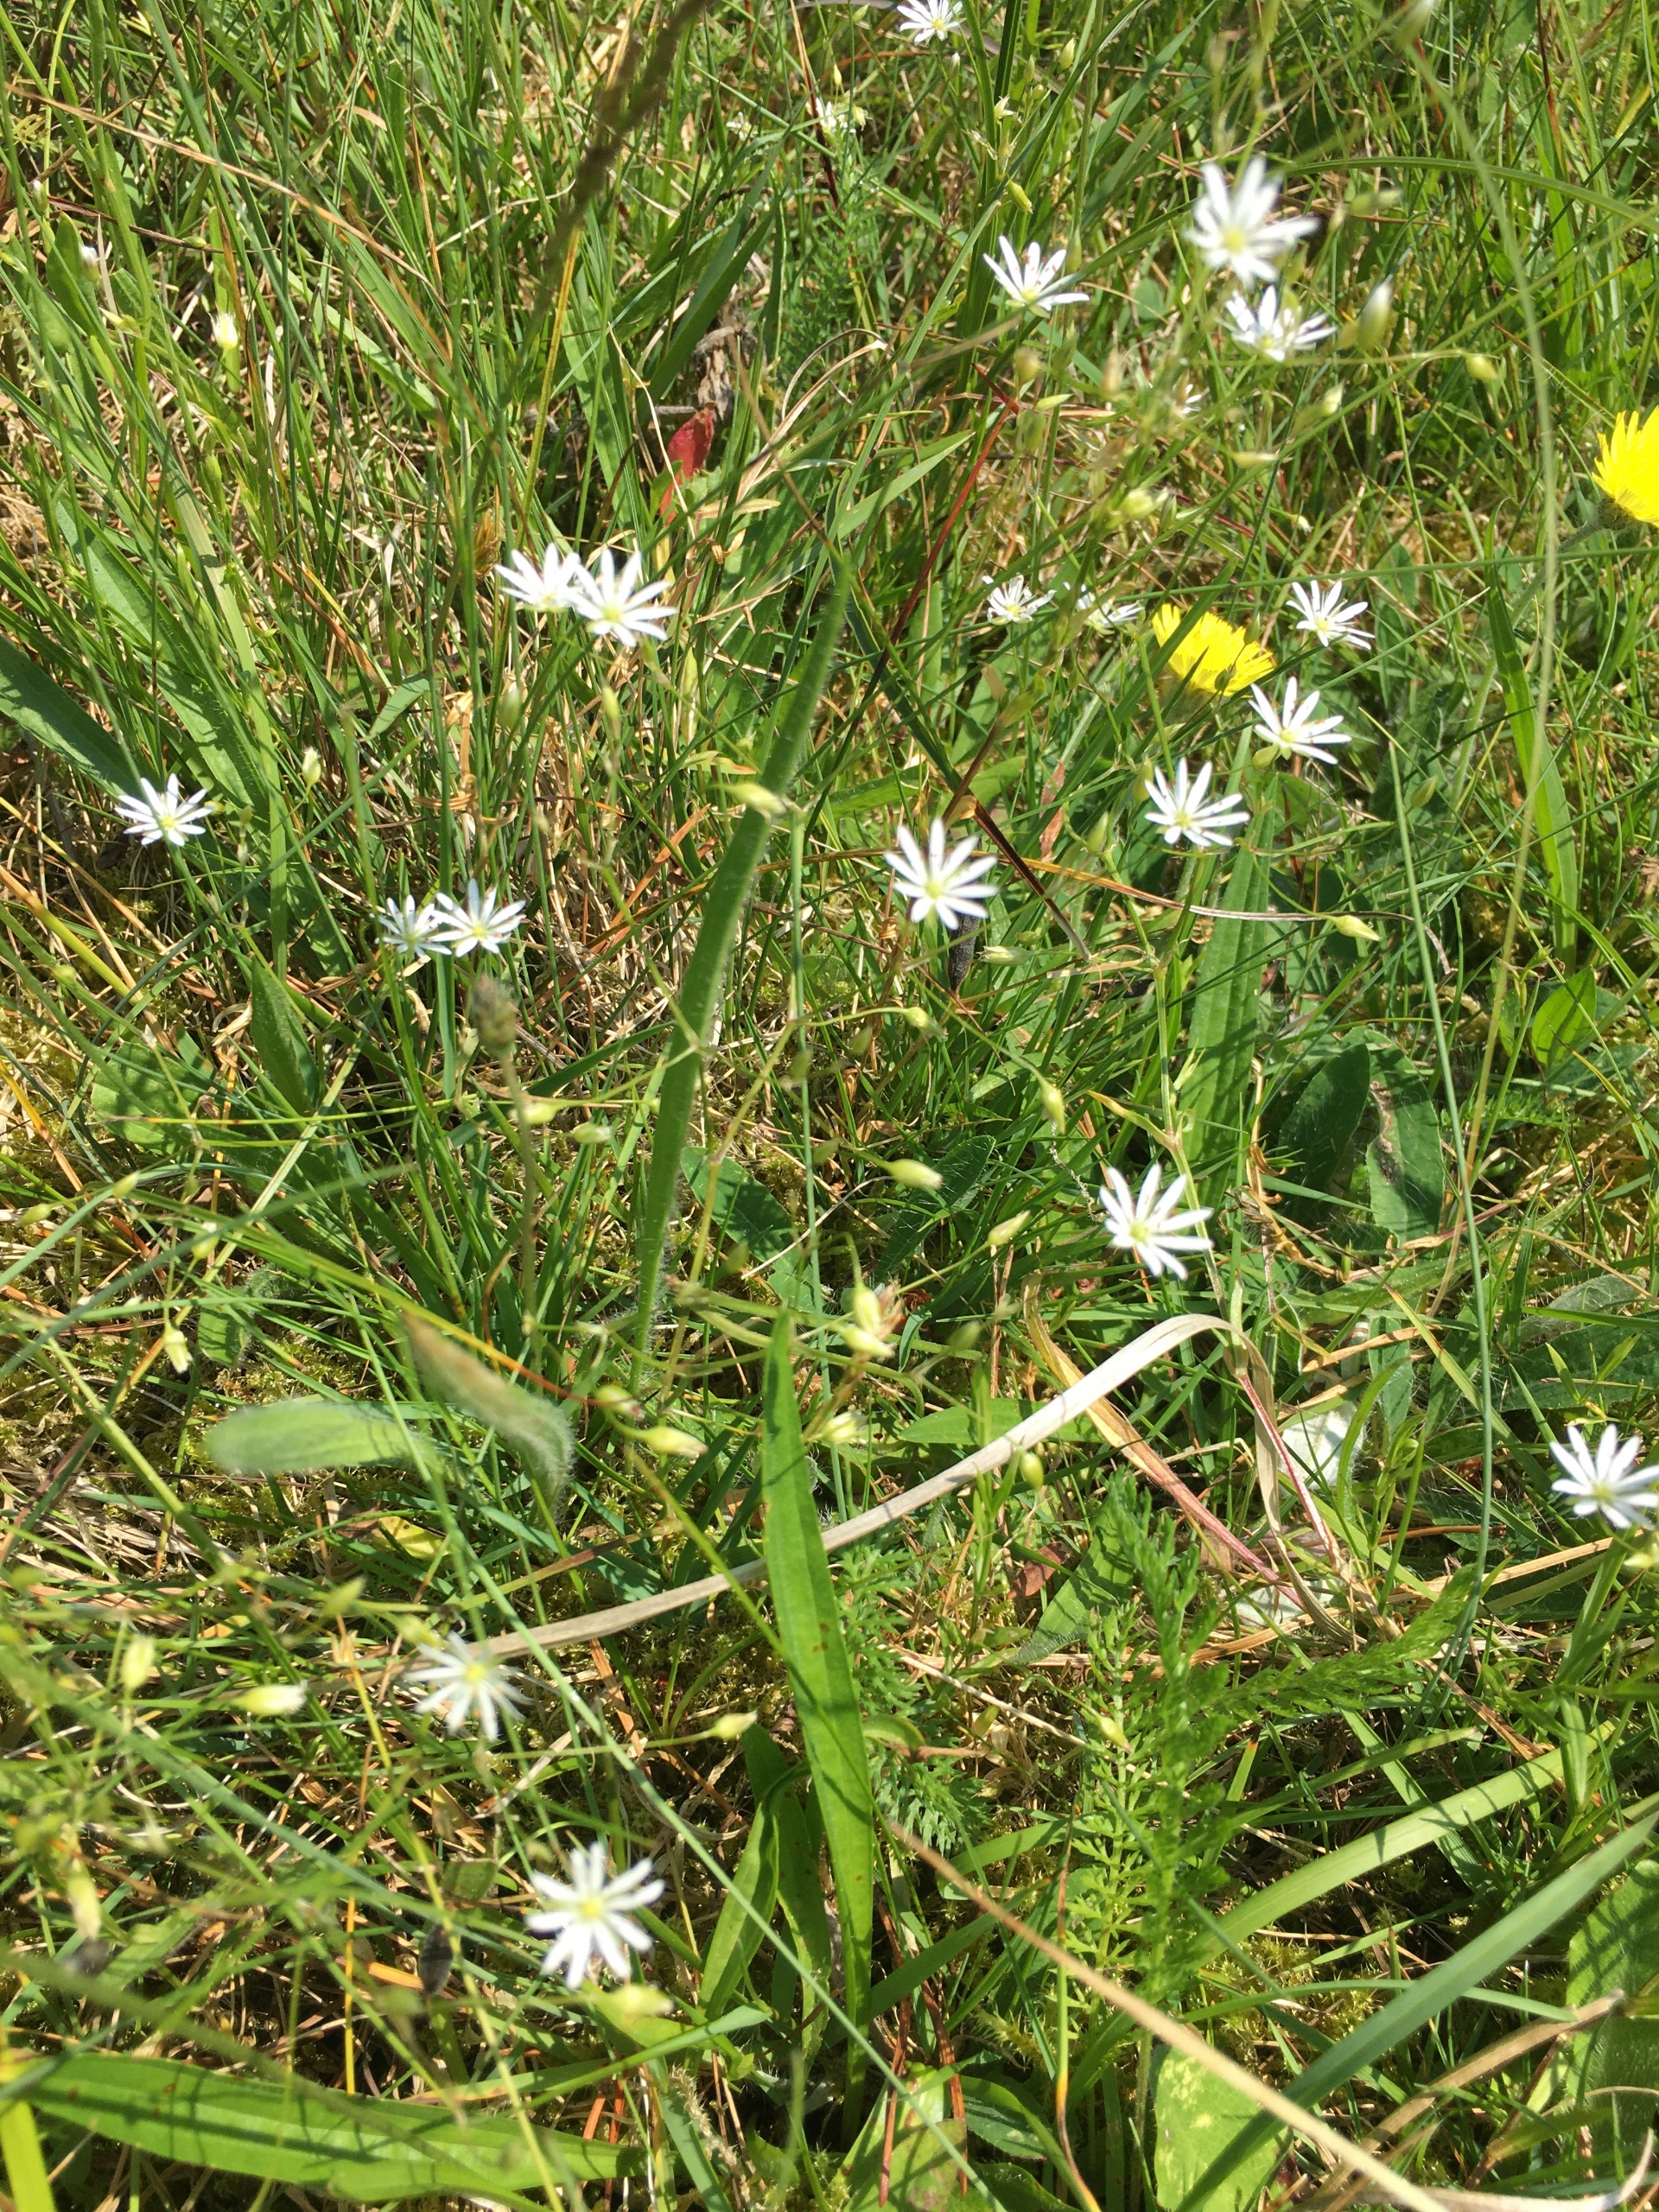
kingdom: Plantae
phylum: Tracheophyta
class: Magnoliopsida
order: Caryophyllales
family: Caryophyllaceae
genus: Stellaria
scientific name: Stellaria graminea
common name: Græsbladet fladstjerne
